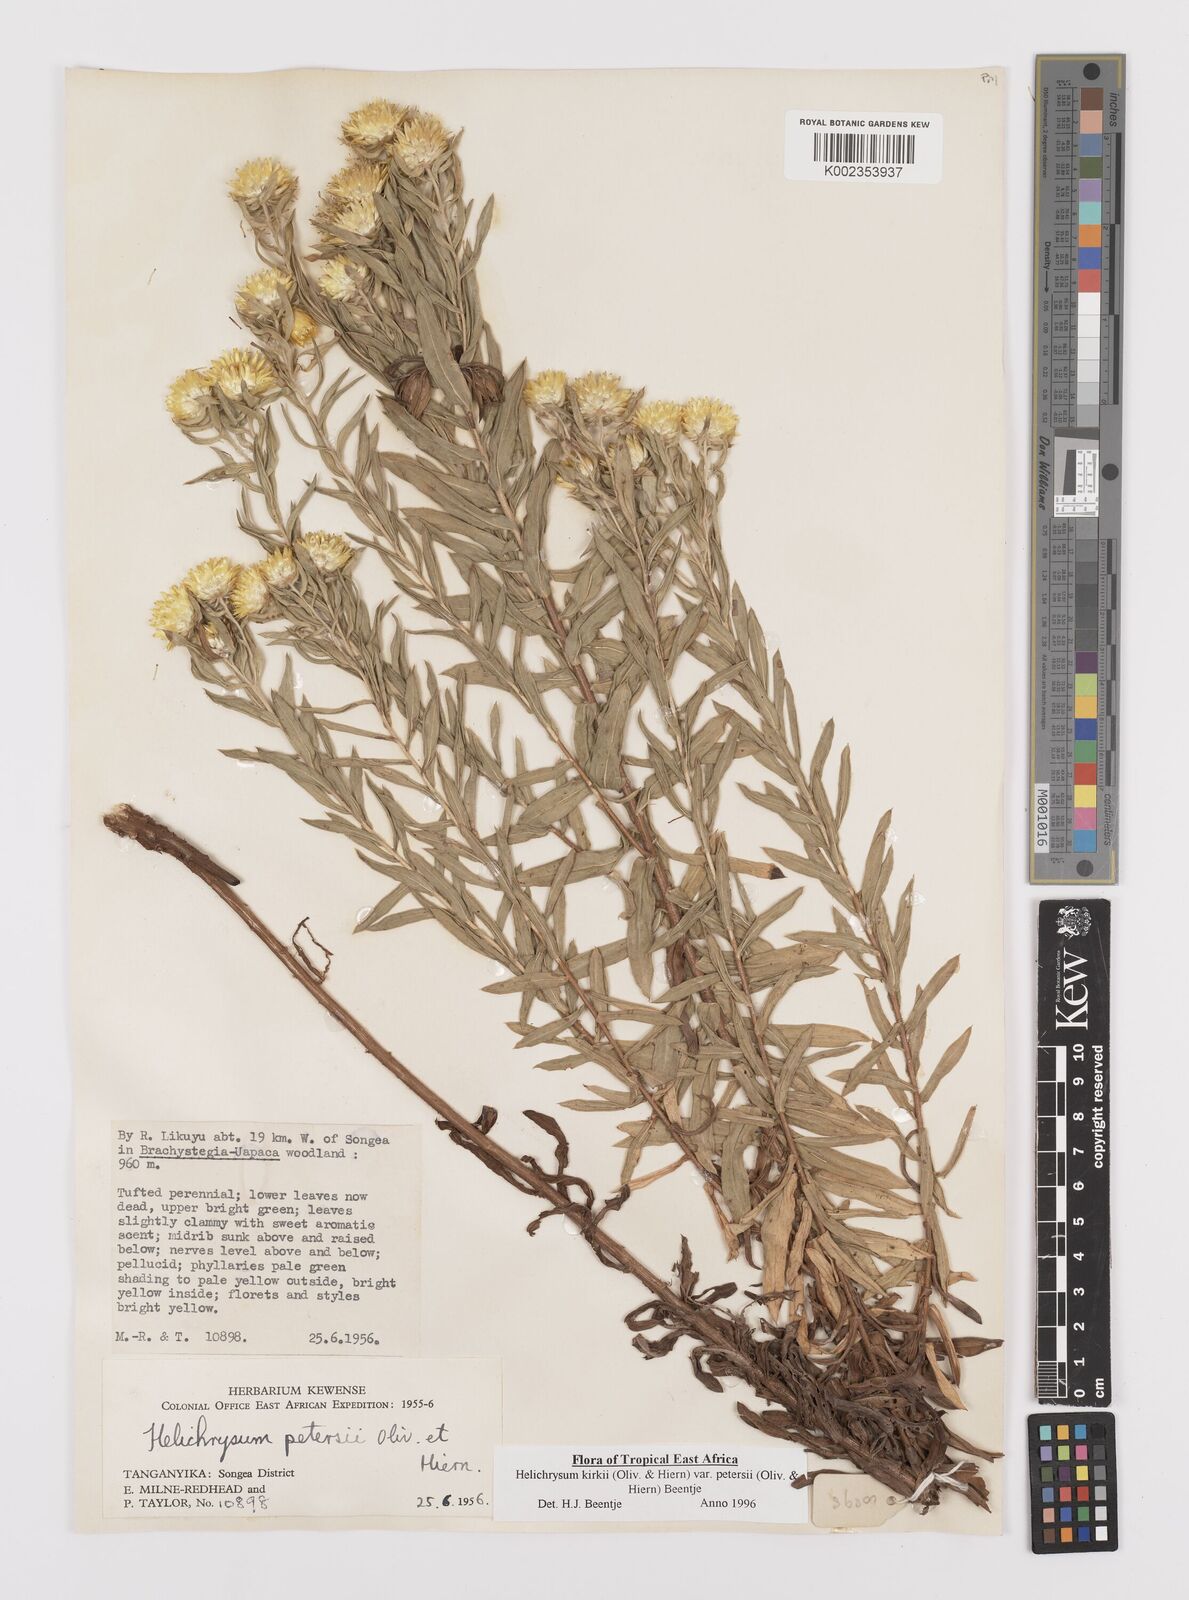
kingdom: Plantae
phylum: Tracheophyta
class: Magnoliopsida
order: Asterales
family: Asteraceae
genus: Helichrysum
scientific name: Helichrysum kirkii
